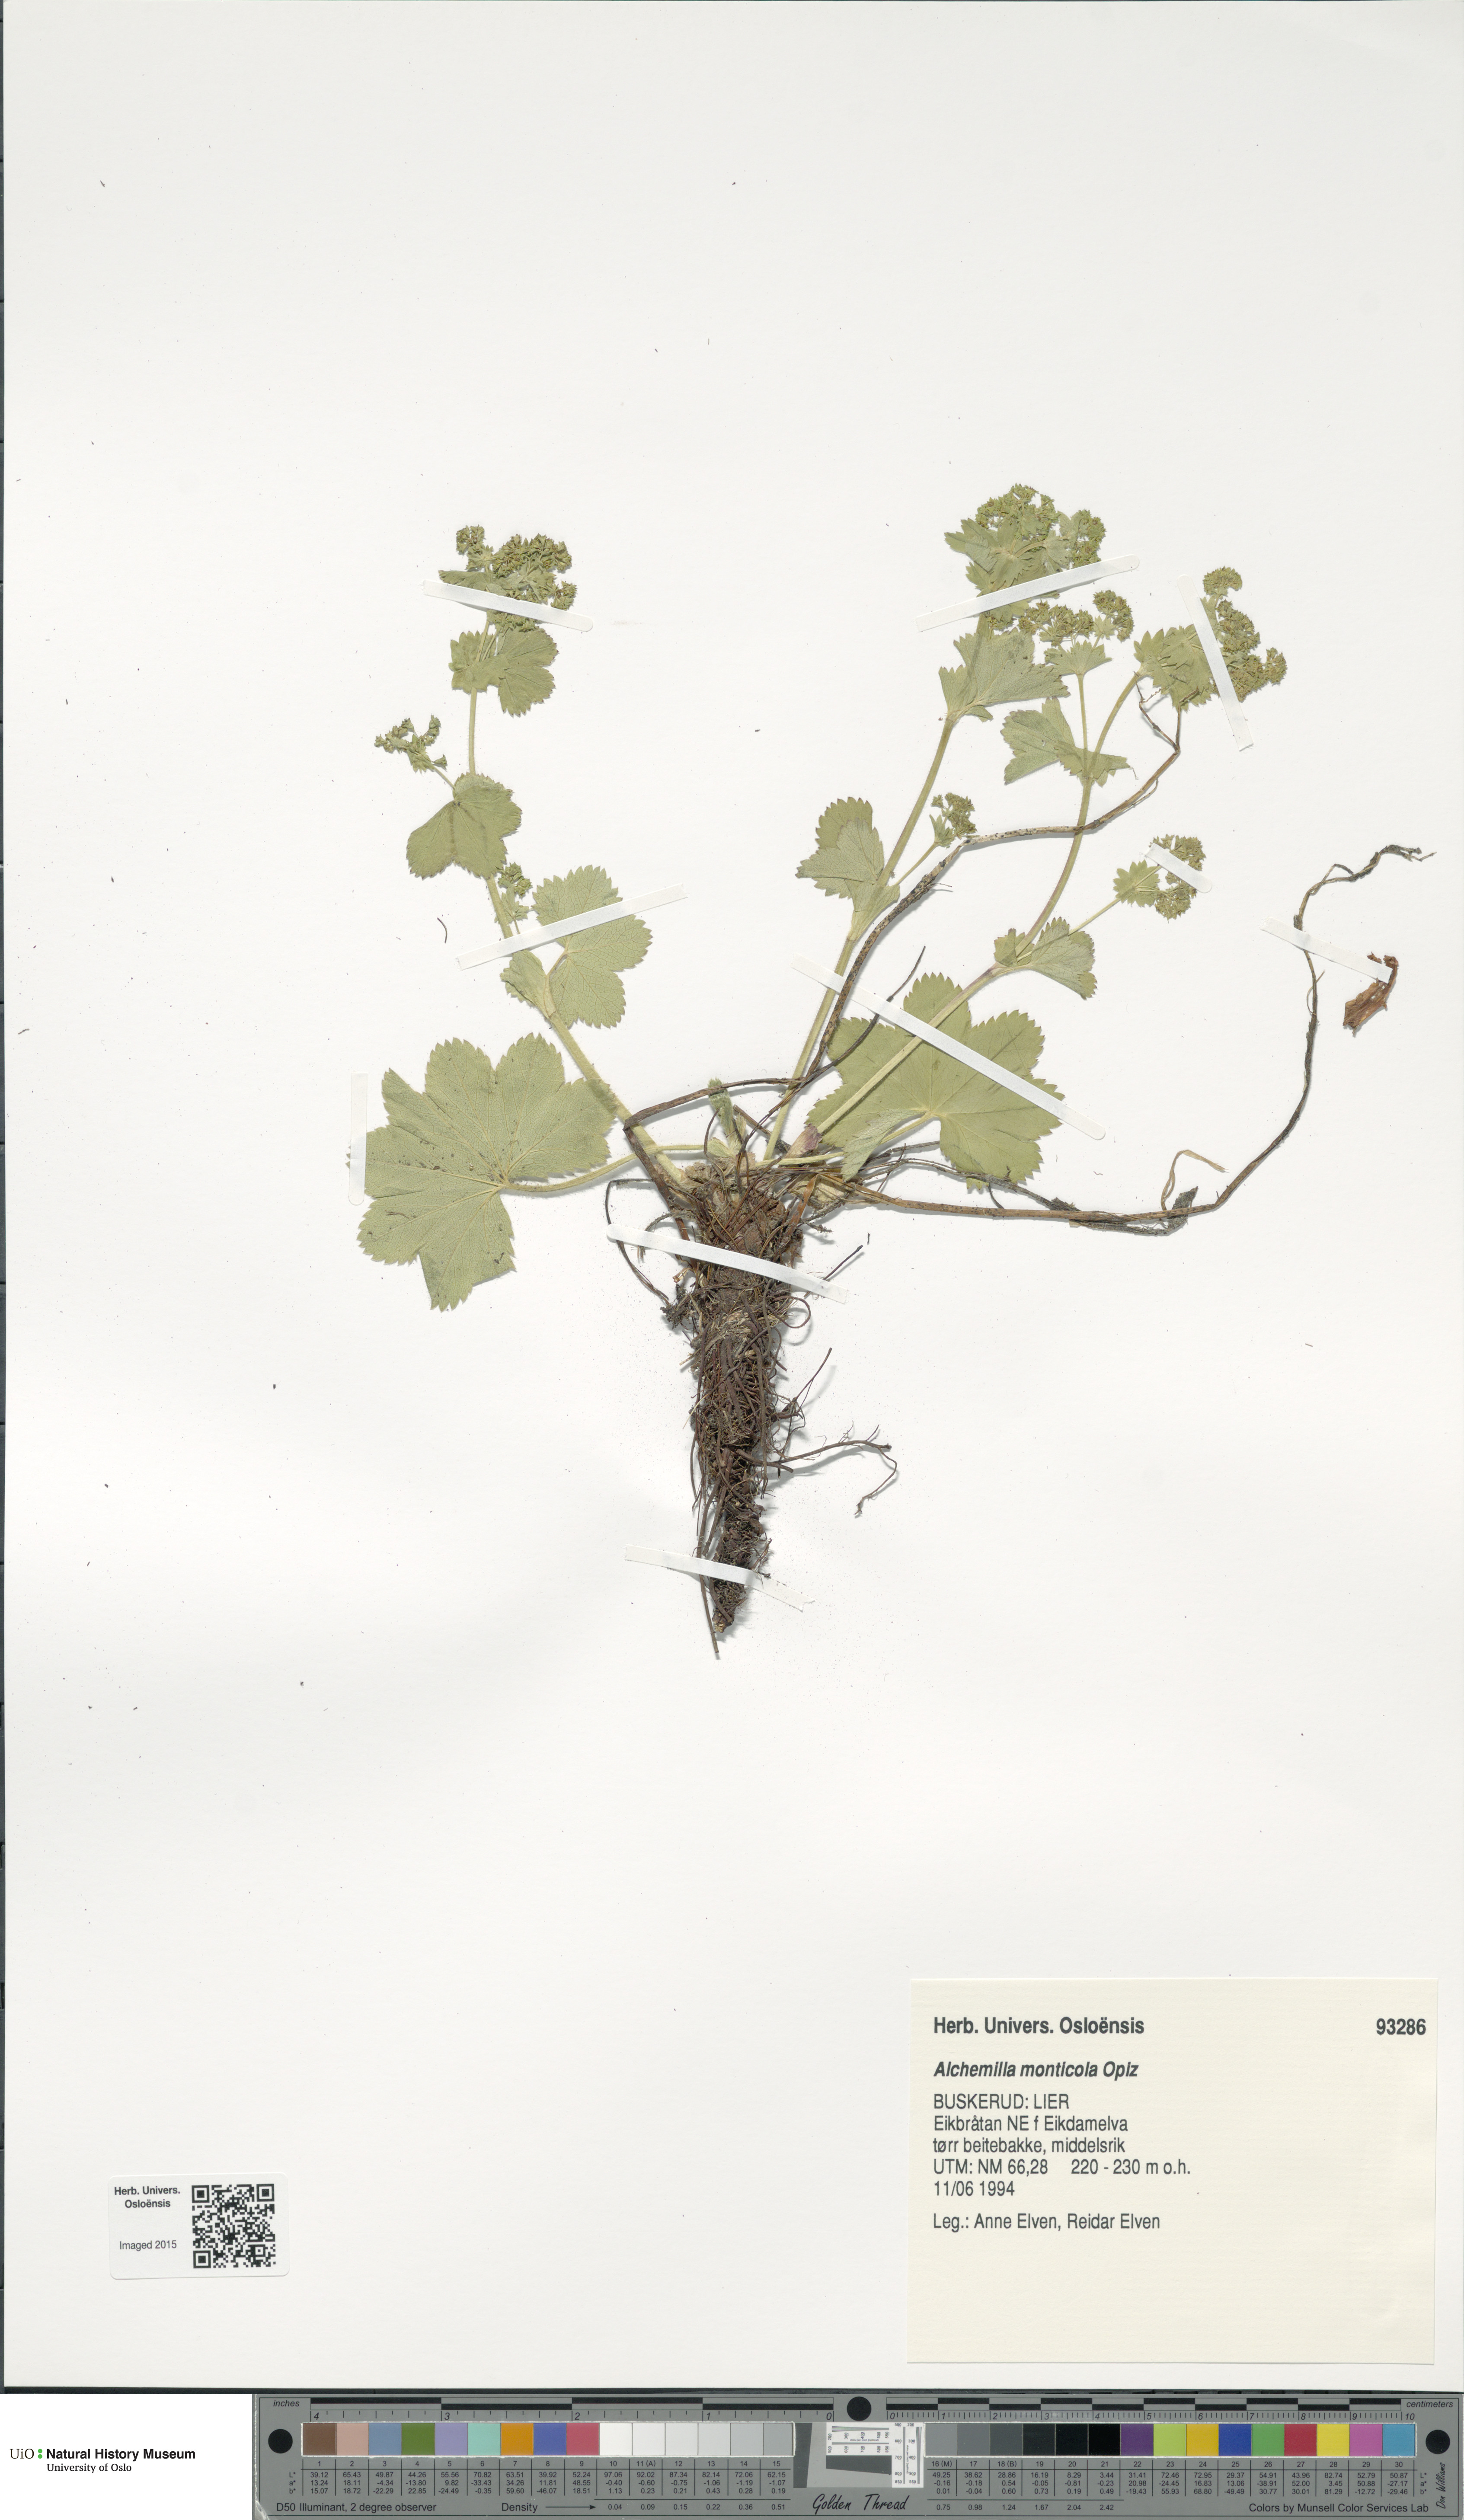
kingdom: Plantae
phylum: Tracheophyta
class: Magnoliopsida
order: Rosales
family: Rosaceae
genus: Alchemilla
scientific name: Alchemilla monticola
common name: Hairy lady's mantle
